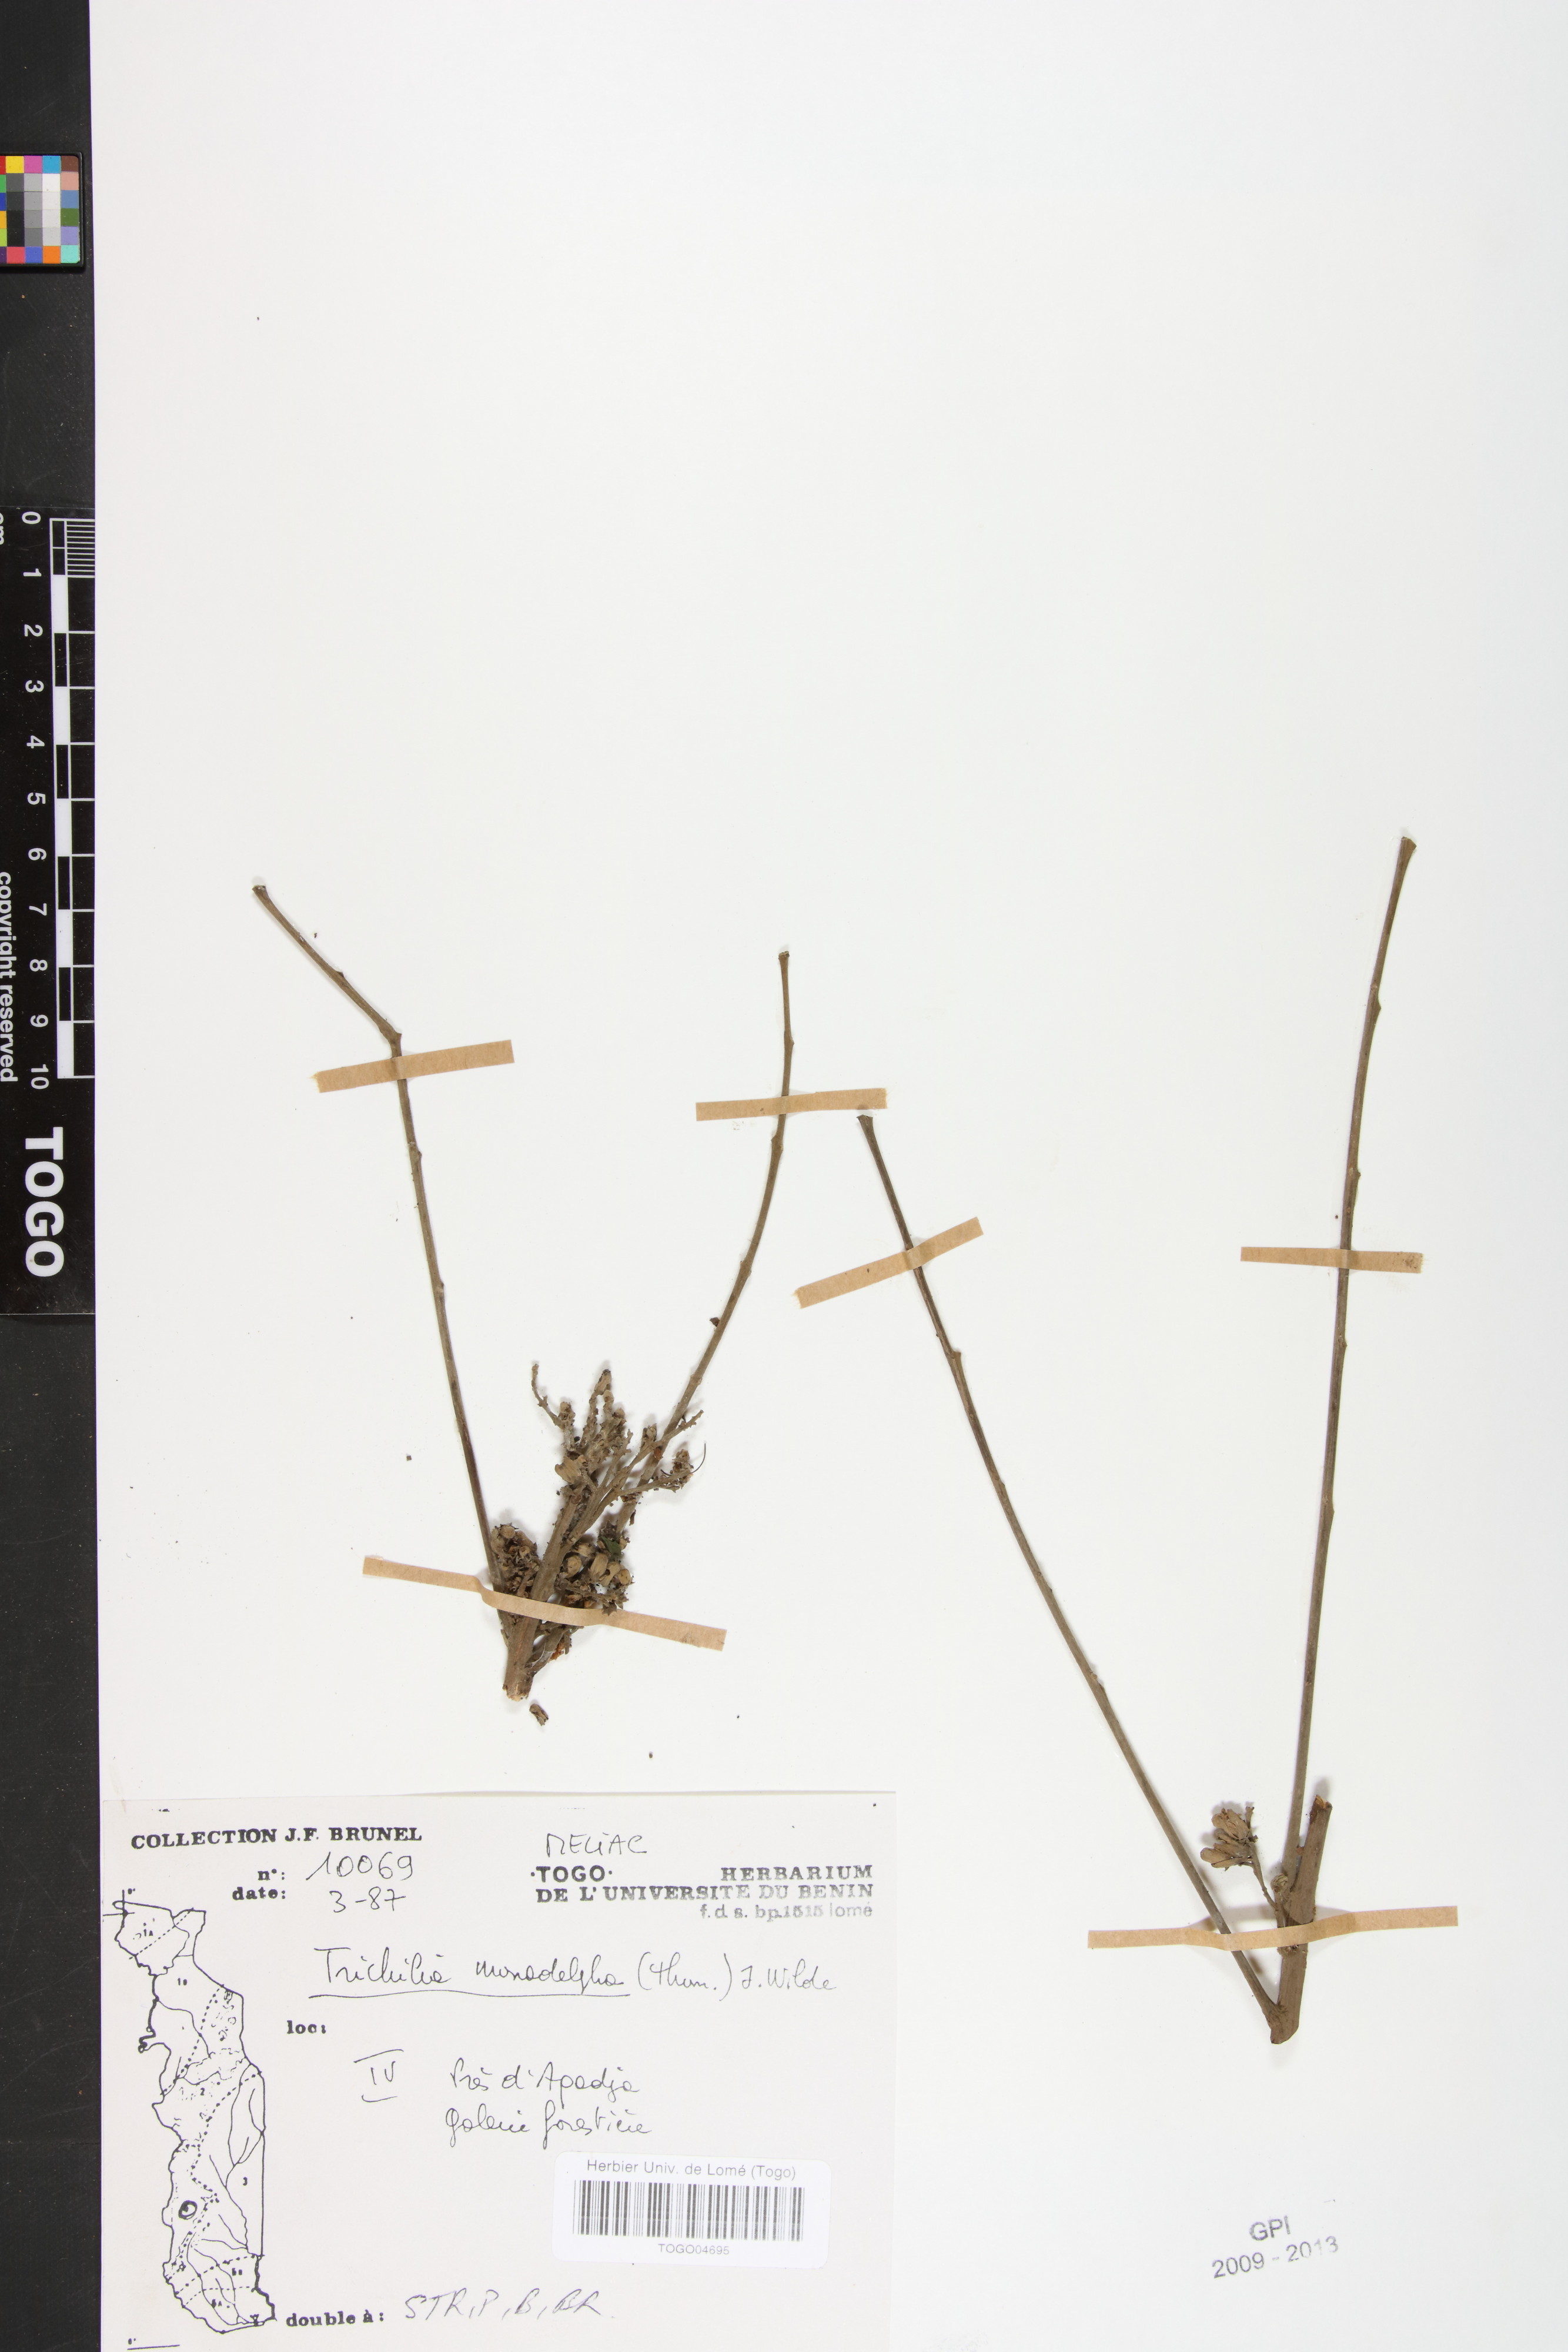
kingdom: Plantae
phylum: Tracheophyta
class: Magnoliopsida
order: Sapindales
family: Meliaceae
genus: Trichilia
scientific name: Trichilia monadelpha
